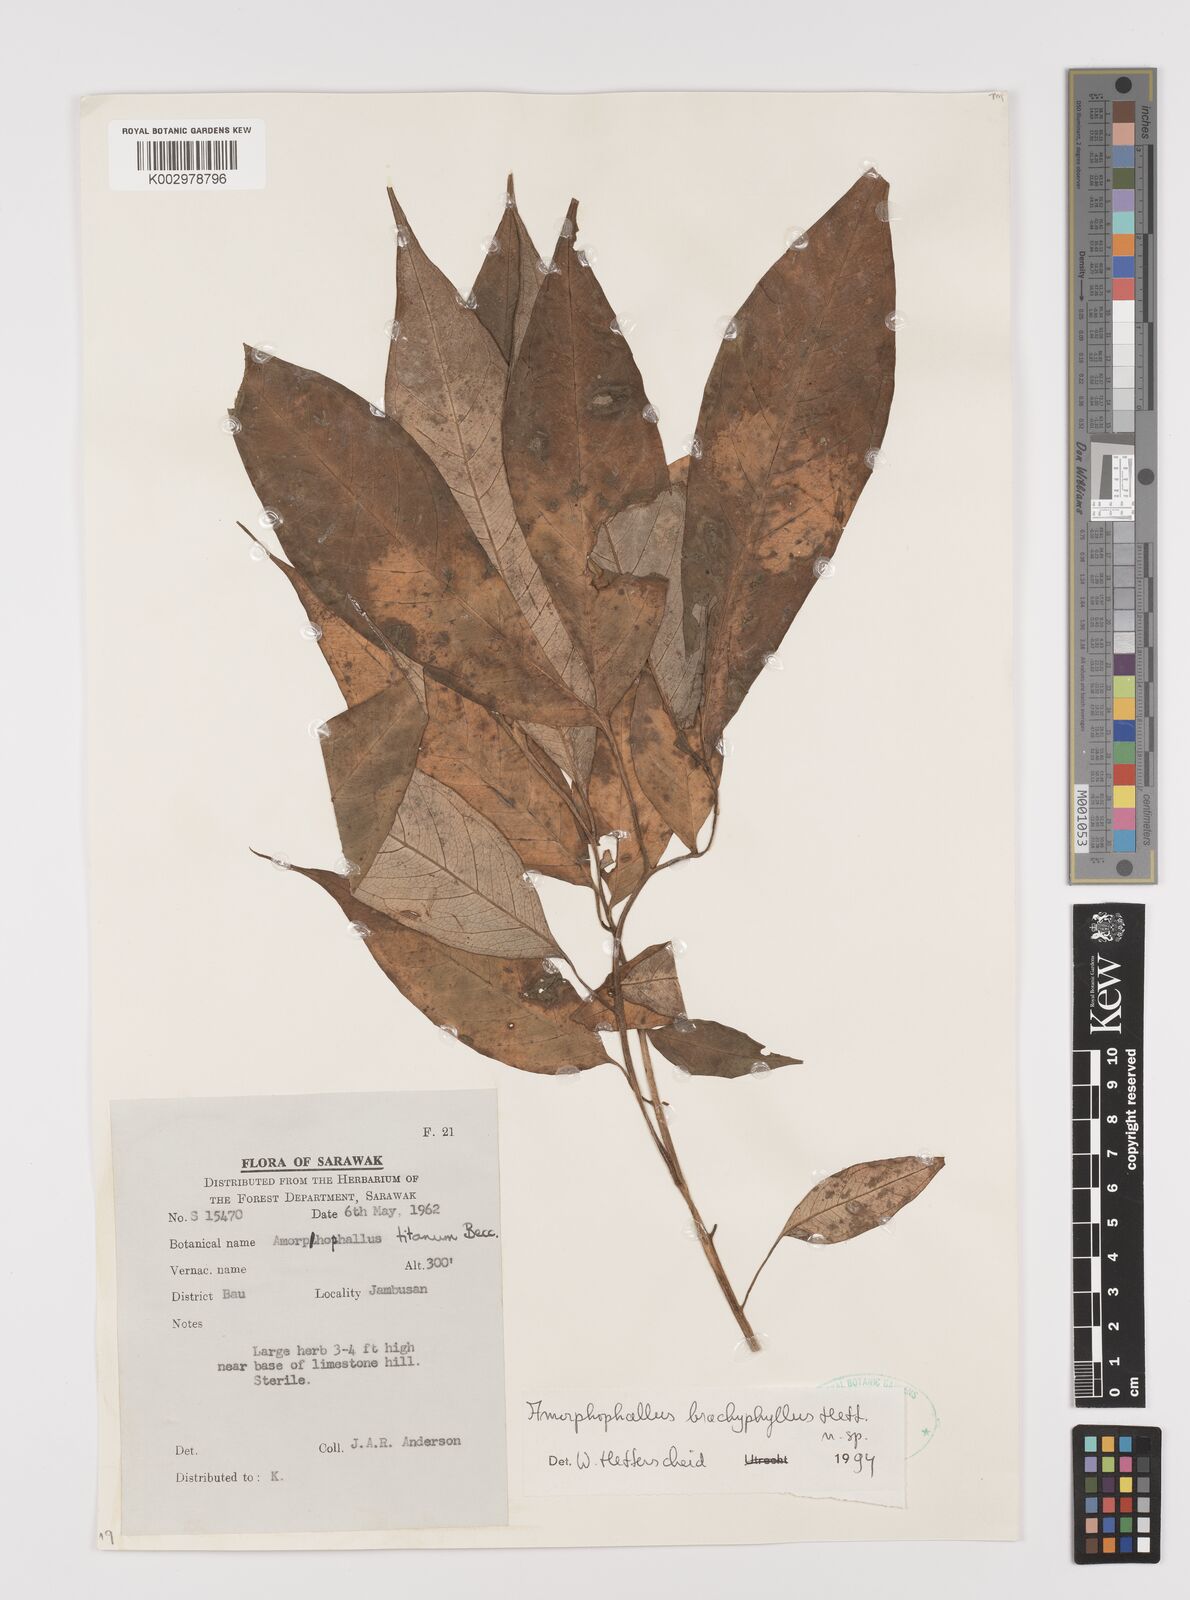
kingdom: Plantae
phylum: Tracheophyta
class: Liliopsida
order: Alismatales
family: Araceae
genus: Amorphophallus
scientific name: Amorphophallus brachyphyllus
